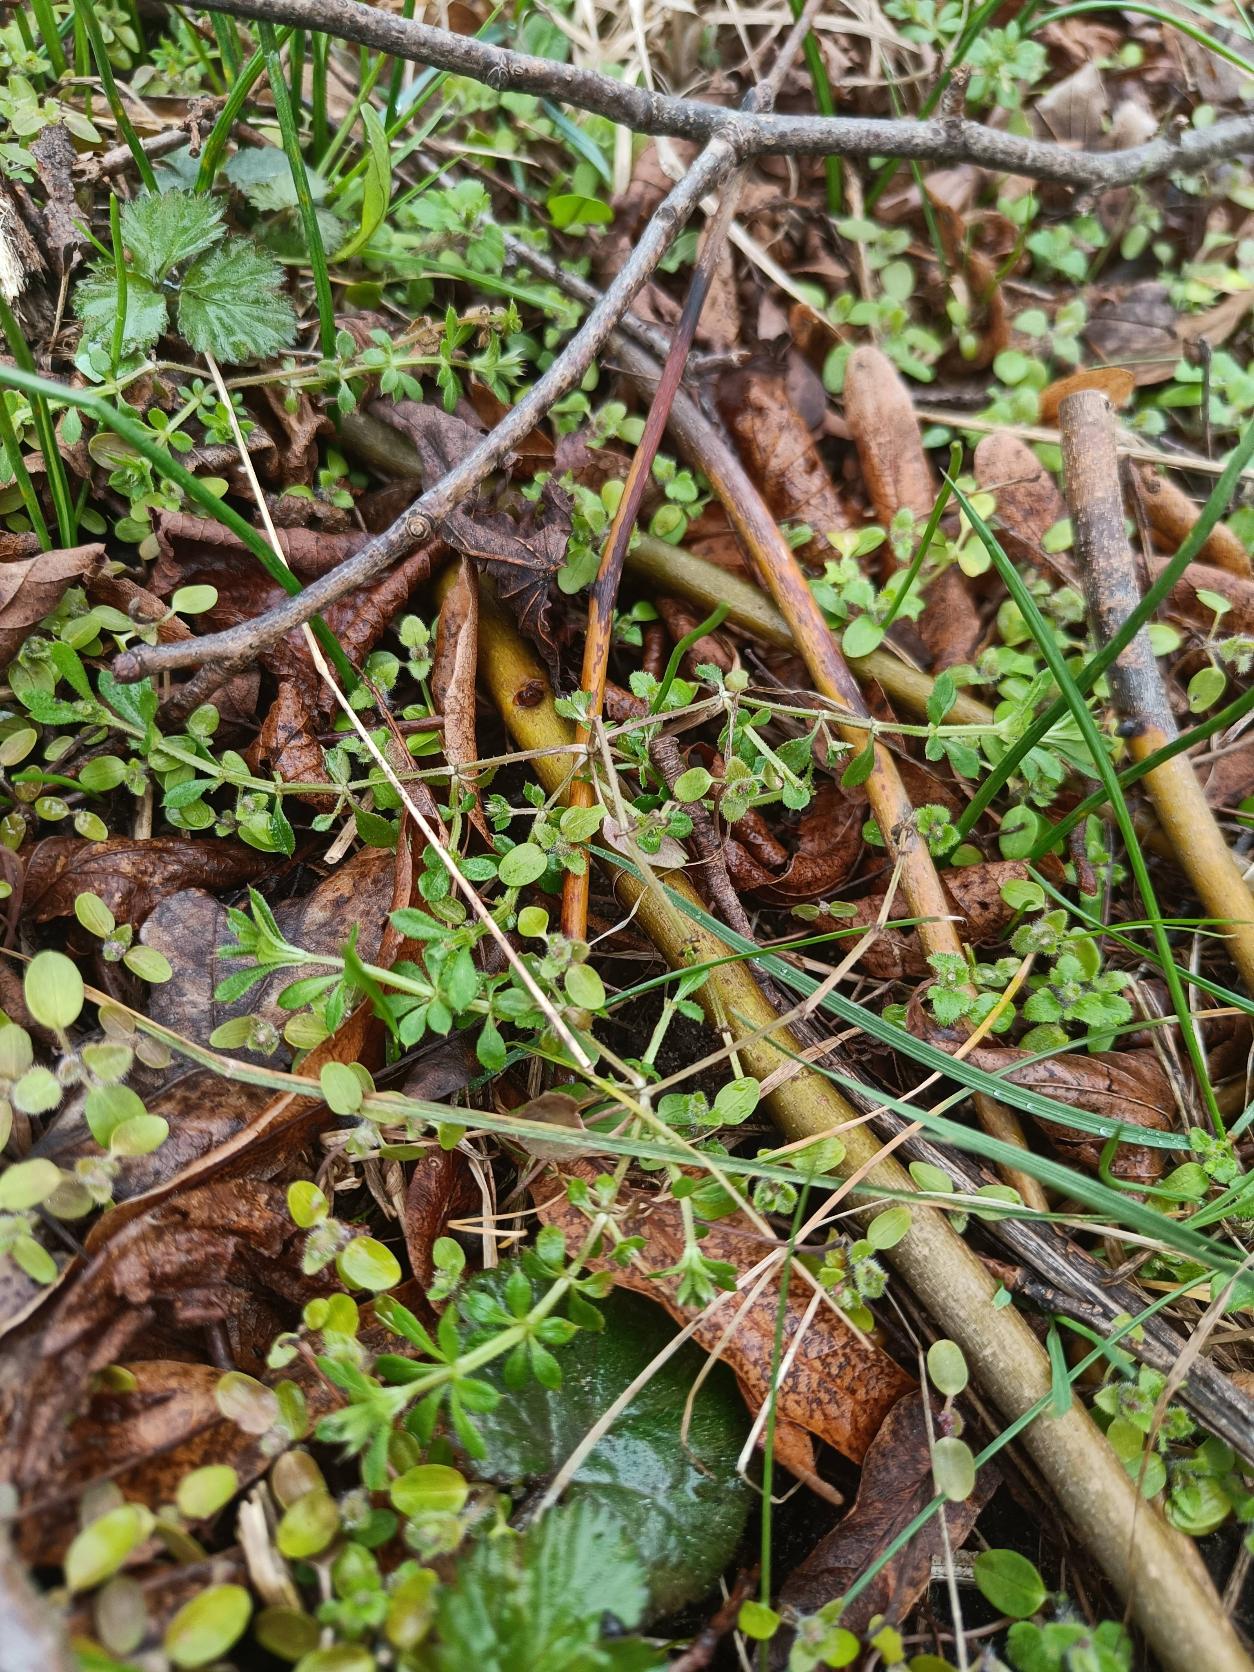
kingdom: Plantae
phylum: Tracheophyta
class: Magnoliopsida
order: Gentianales
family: Rubiaceae
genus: Galium
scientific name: Galium aparine
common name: Burre-snerre
